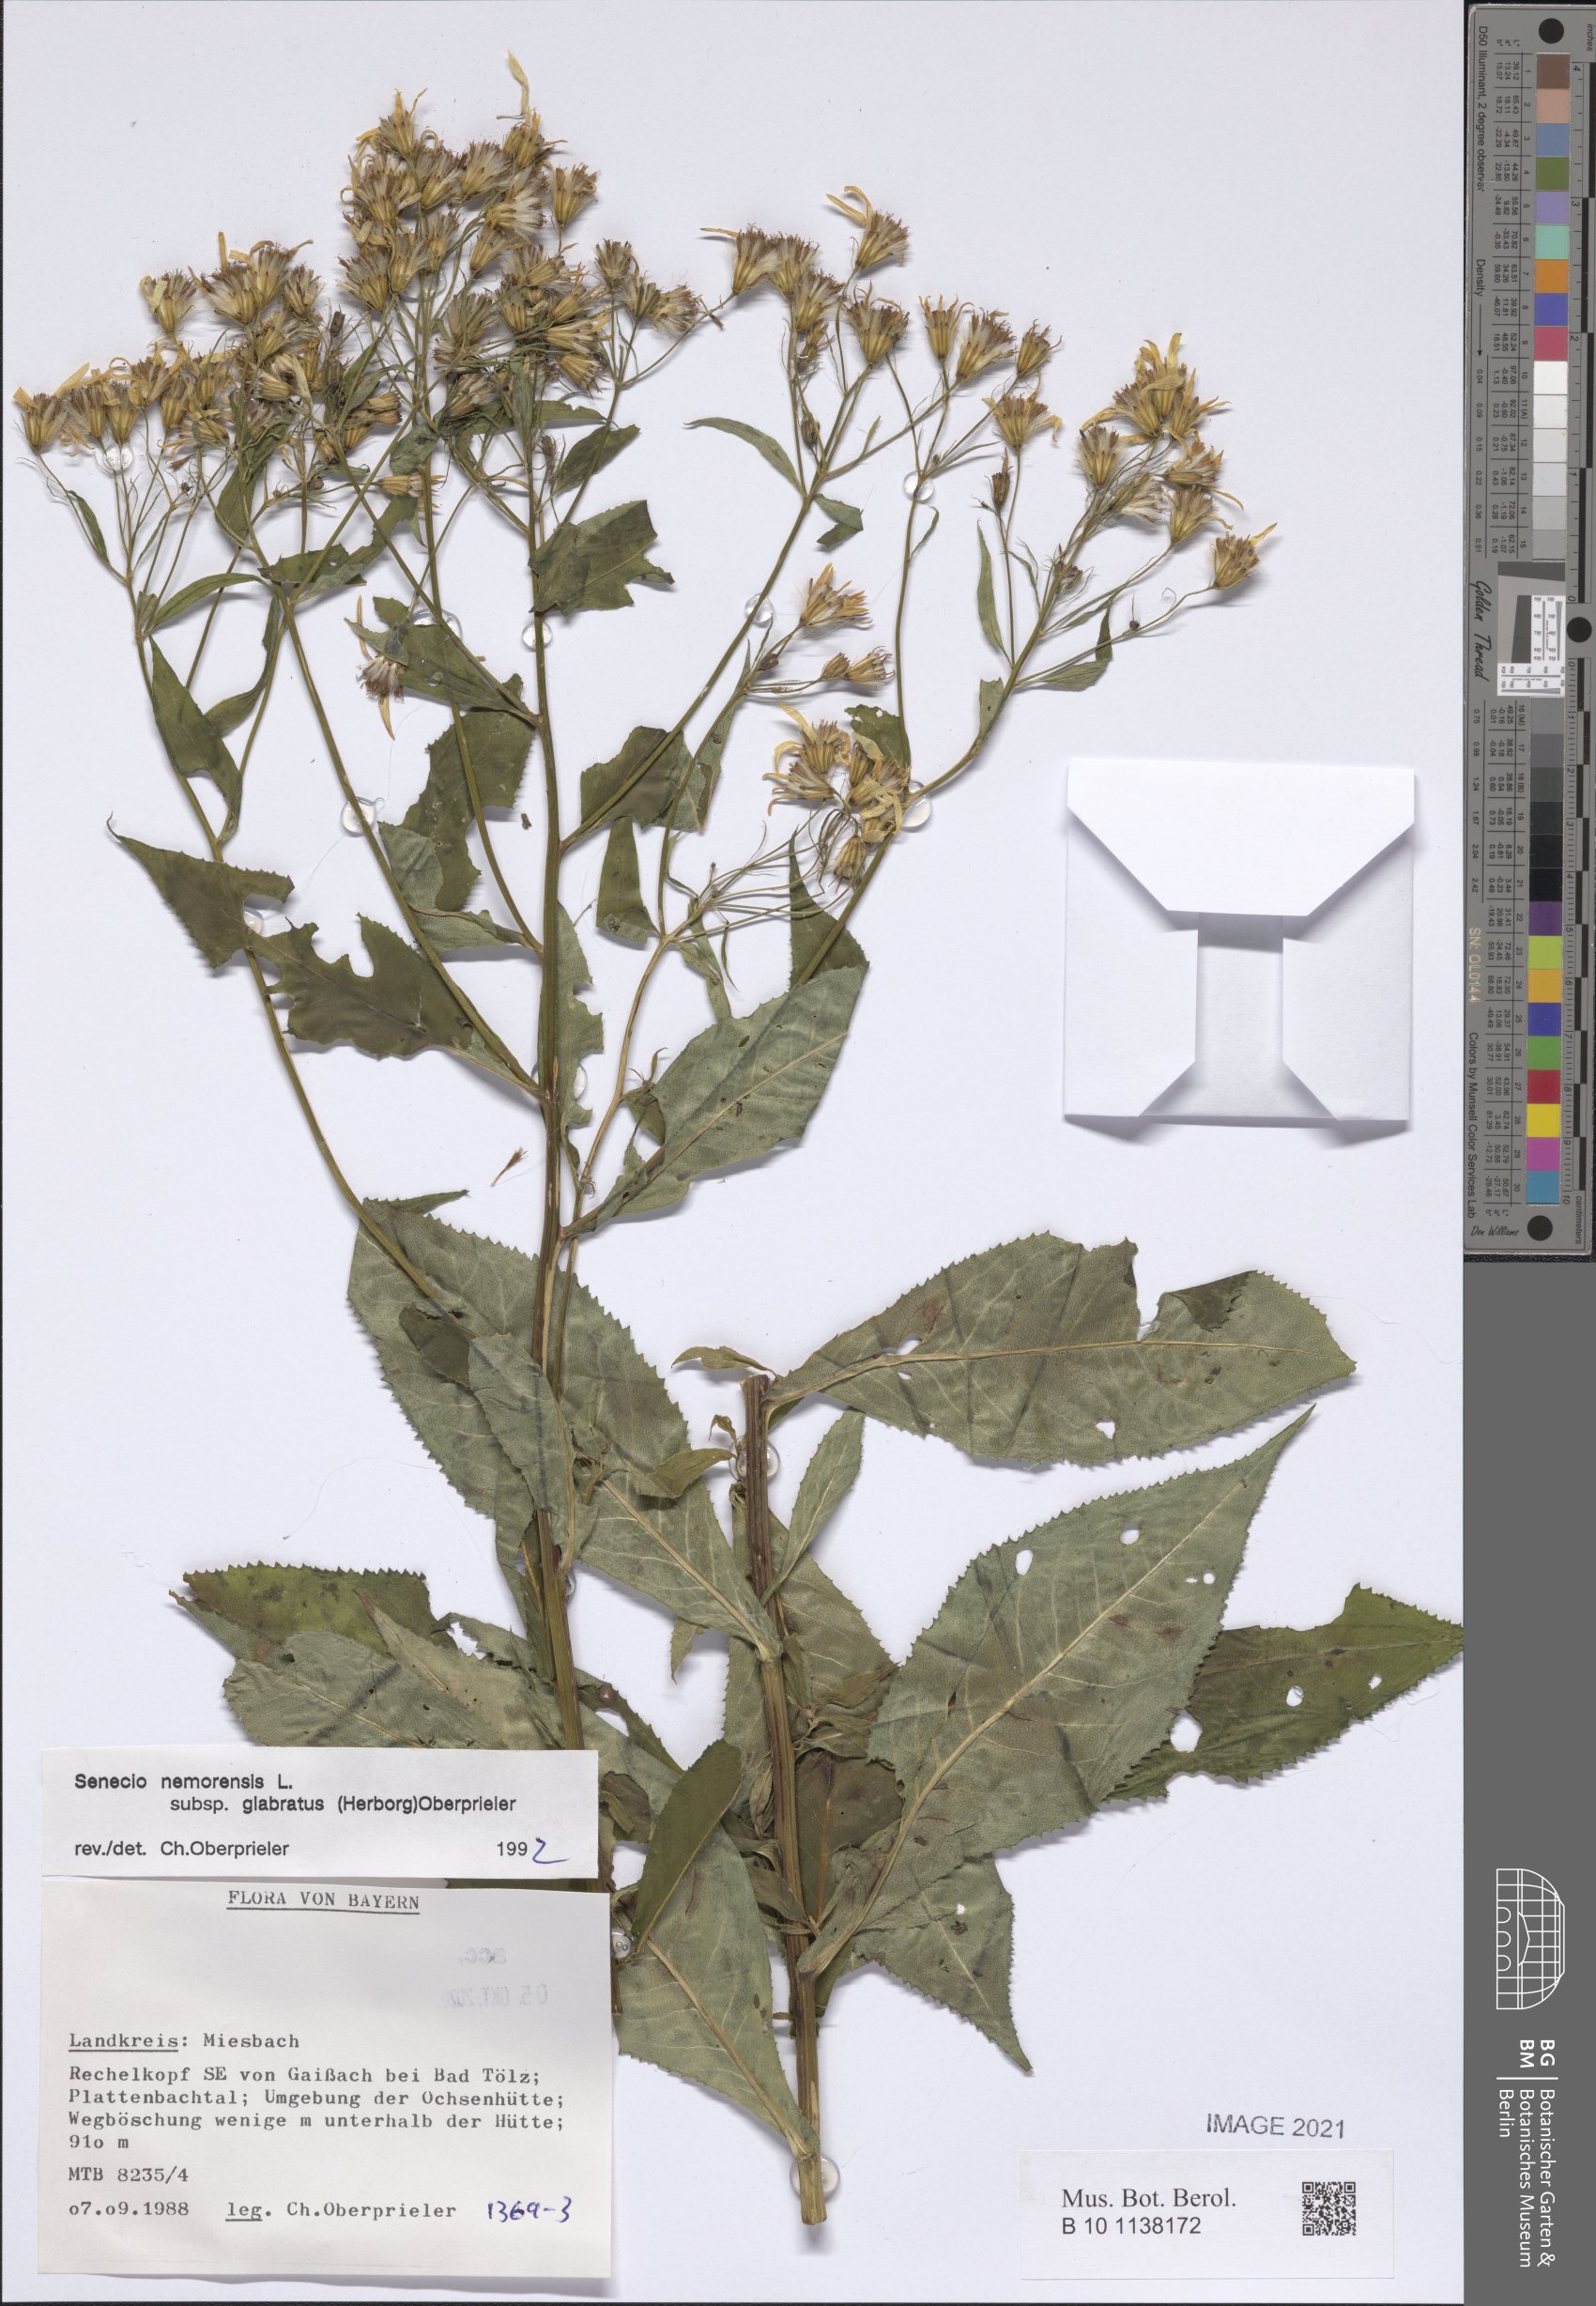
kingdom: Plantae
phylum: Tracheophyta
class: Magnoliopsida
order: Asterales
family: Asteraceae
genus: Senecio
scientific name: Senecio germanicus
